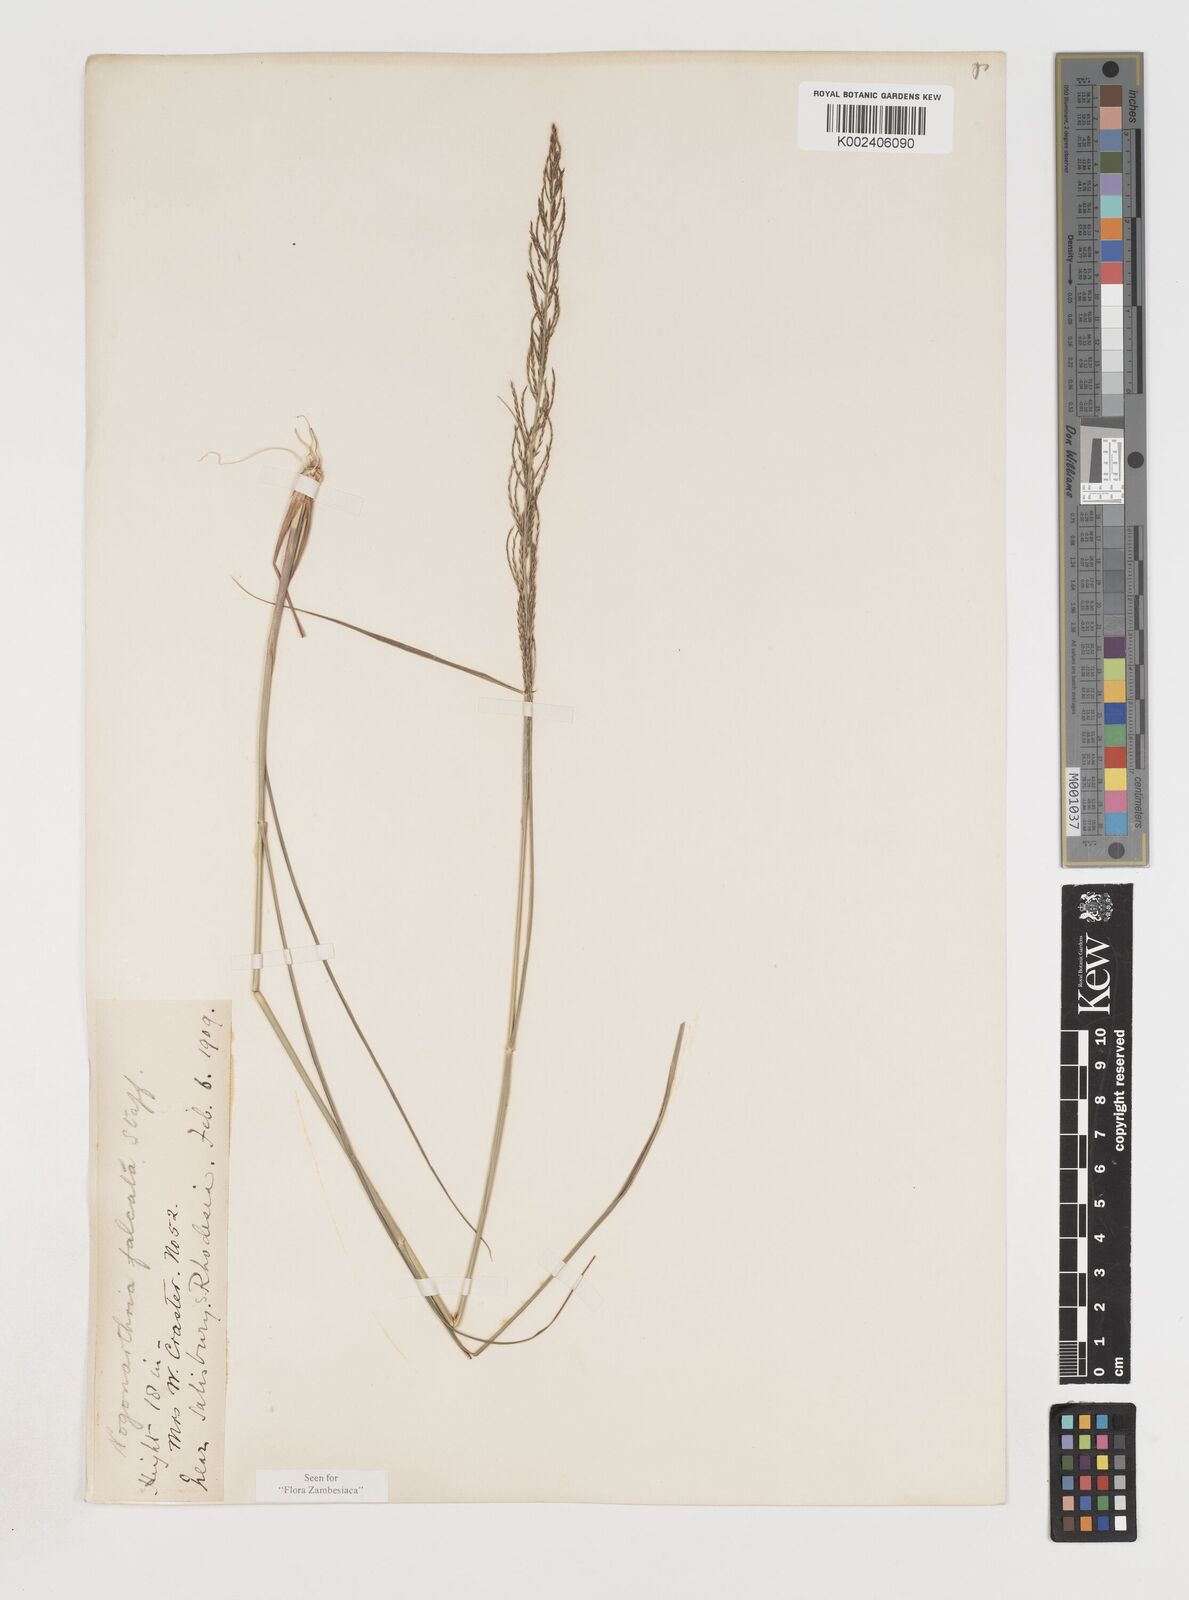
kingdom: Plantae
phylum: Tracheophyta
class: Liliopsida
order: Poales
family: Poaceae
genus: Pogonarthria
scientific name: Pogonarthria squarrosa
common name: Grass
